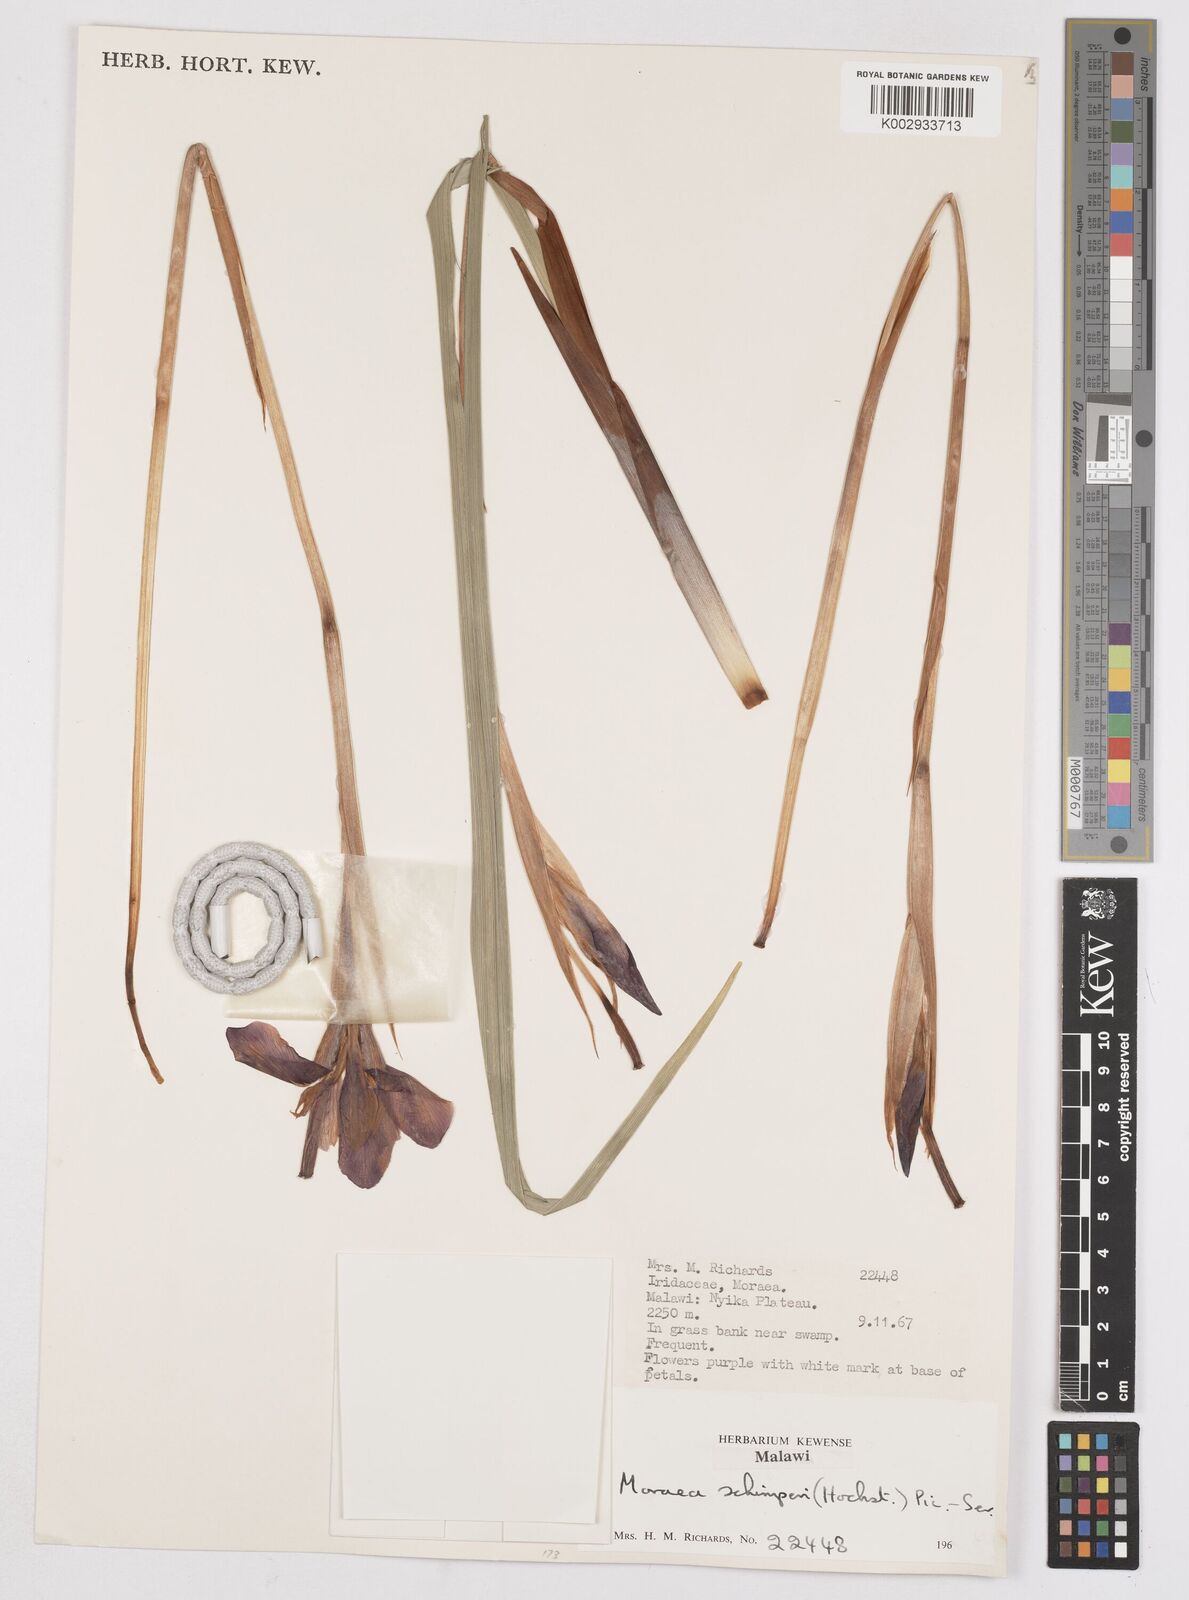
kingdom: Plantae
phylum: Tracheophyta
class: Liliopsida
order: Asparagales
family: Iridaceae
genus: Moraea
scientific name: Moraea schimperi
